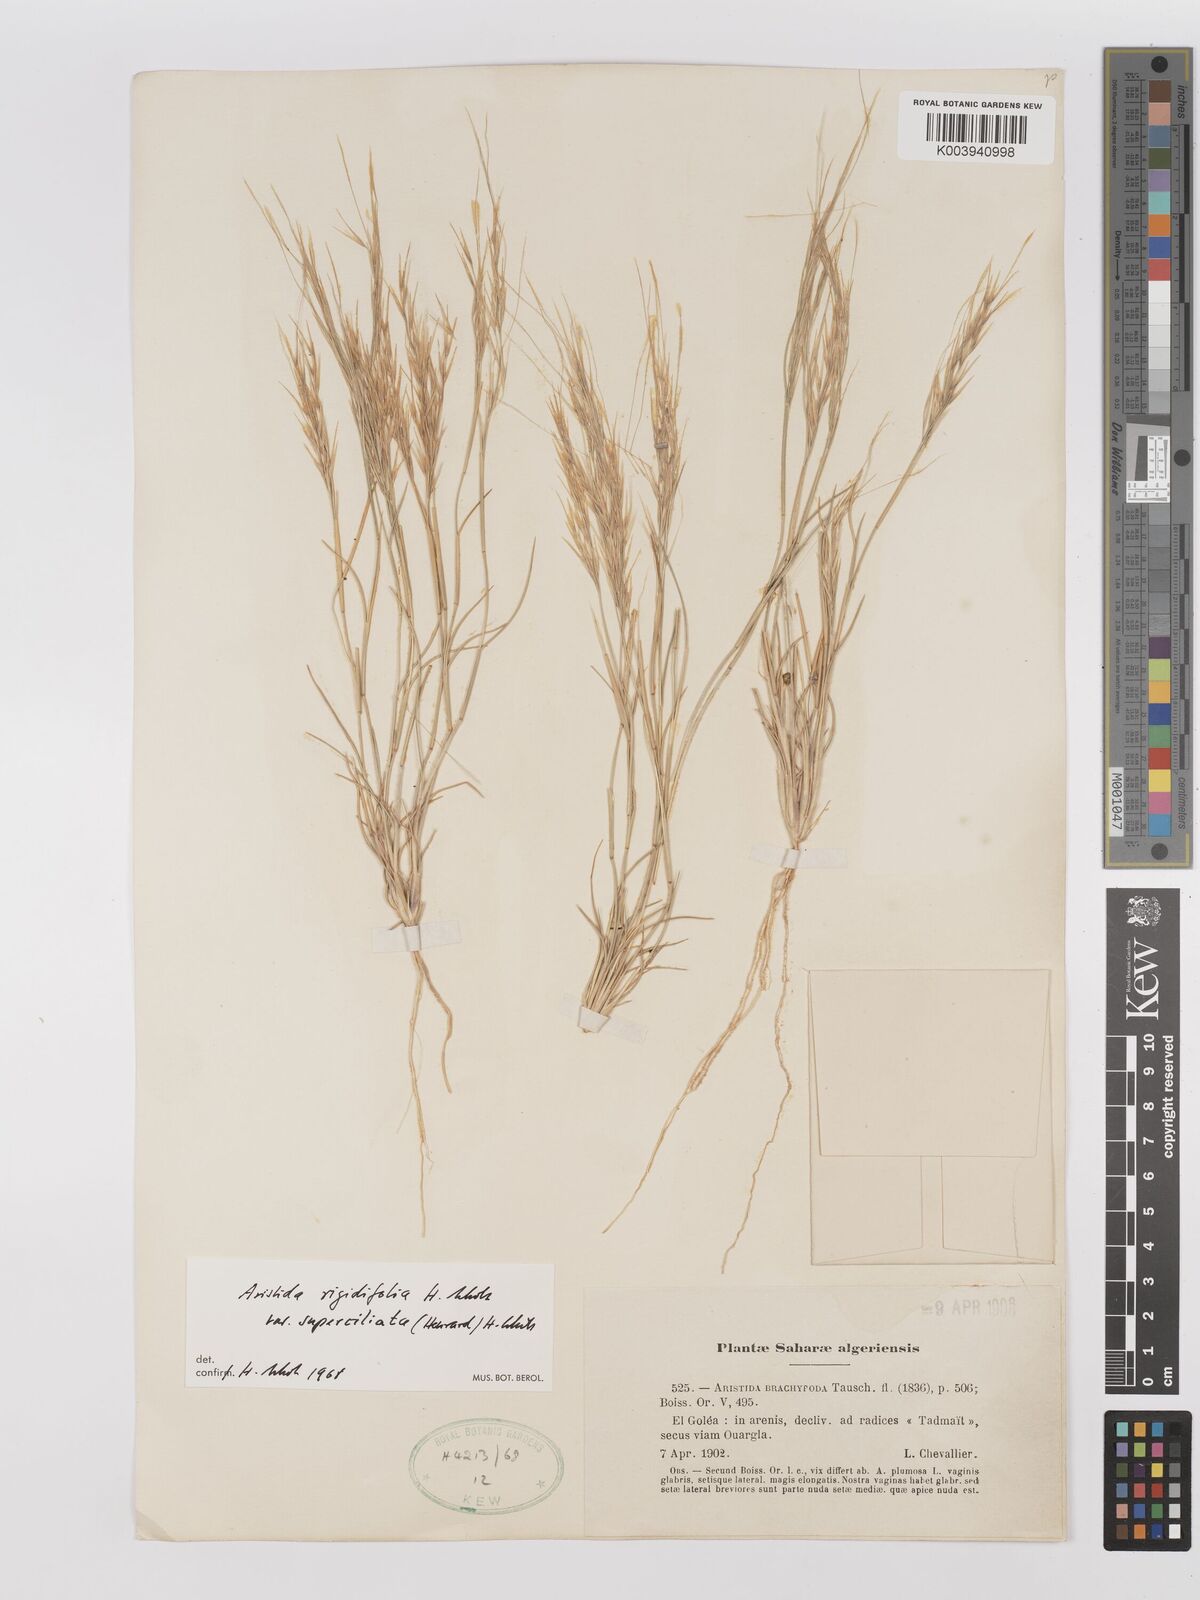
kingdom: Plantae
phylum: Tracheophyta
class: Liliopsida
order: Poales
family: Poaceae
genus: Stipagrostis
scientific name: Stipagrostis rigidifolia
